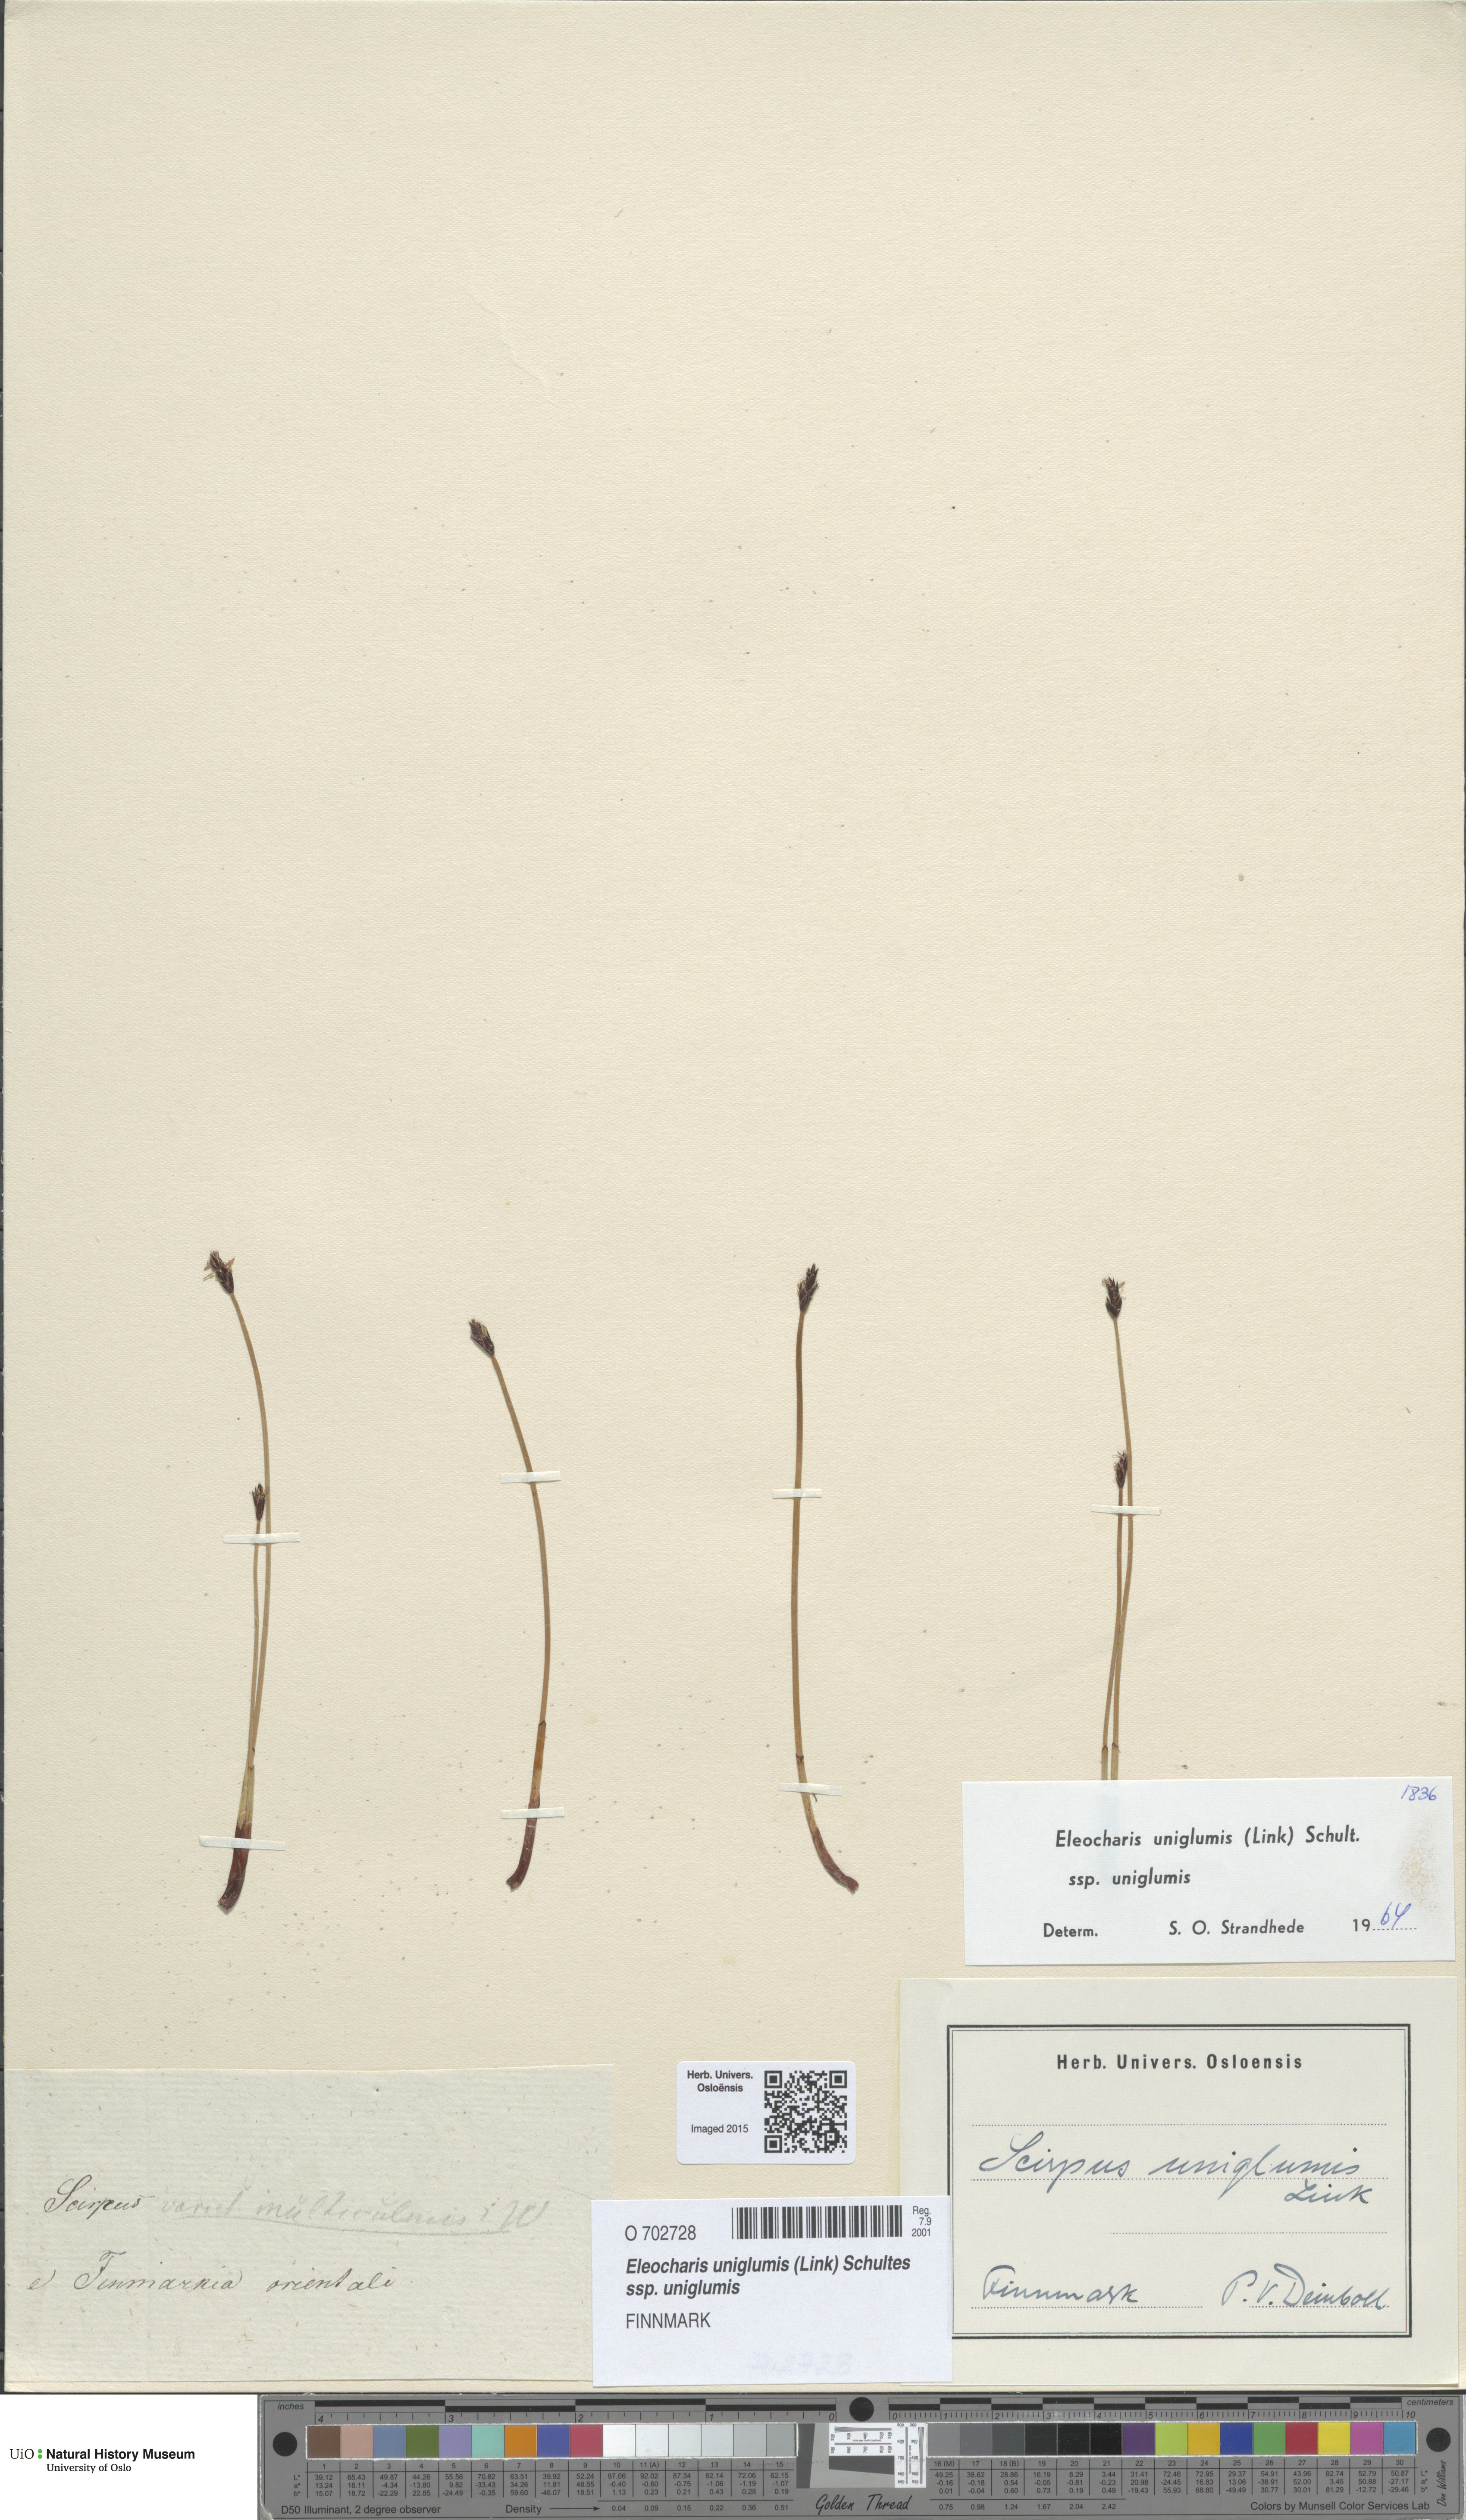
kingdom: Plantae
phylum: Tracheophyta
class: Liliopsida
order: Poales
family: Cyperaceae
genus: Eleocharis
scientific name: Eleocharis uniglumis
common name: Slender spike-rush
